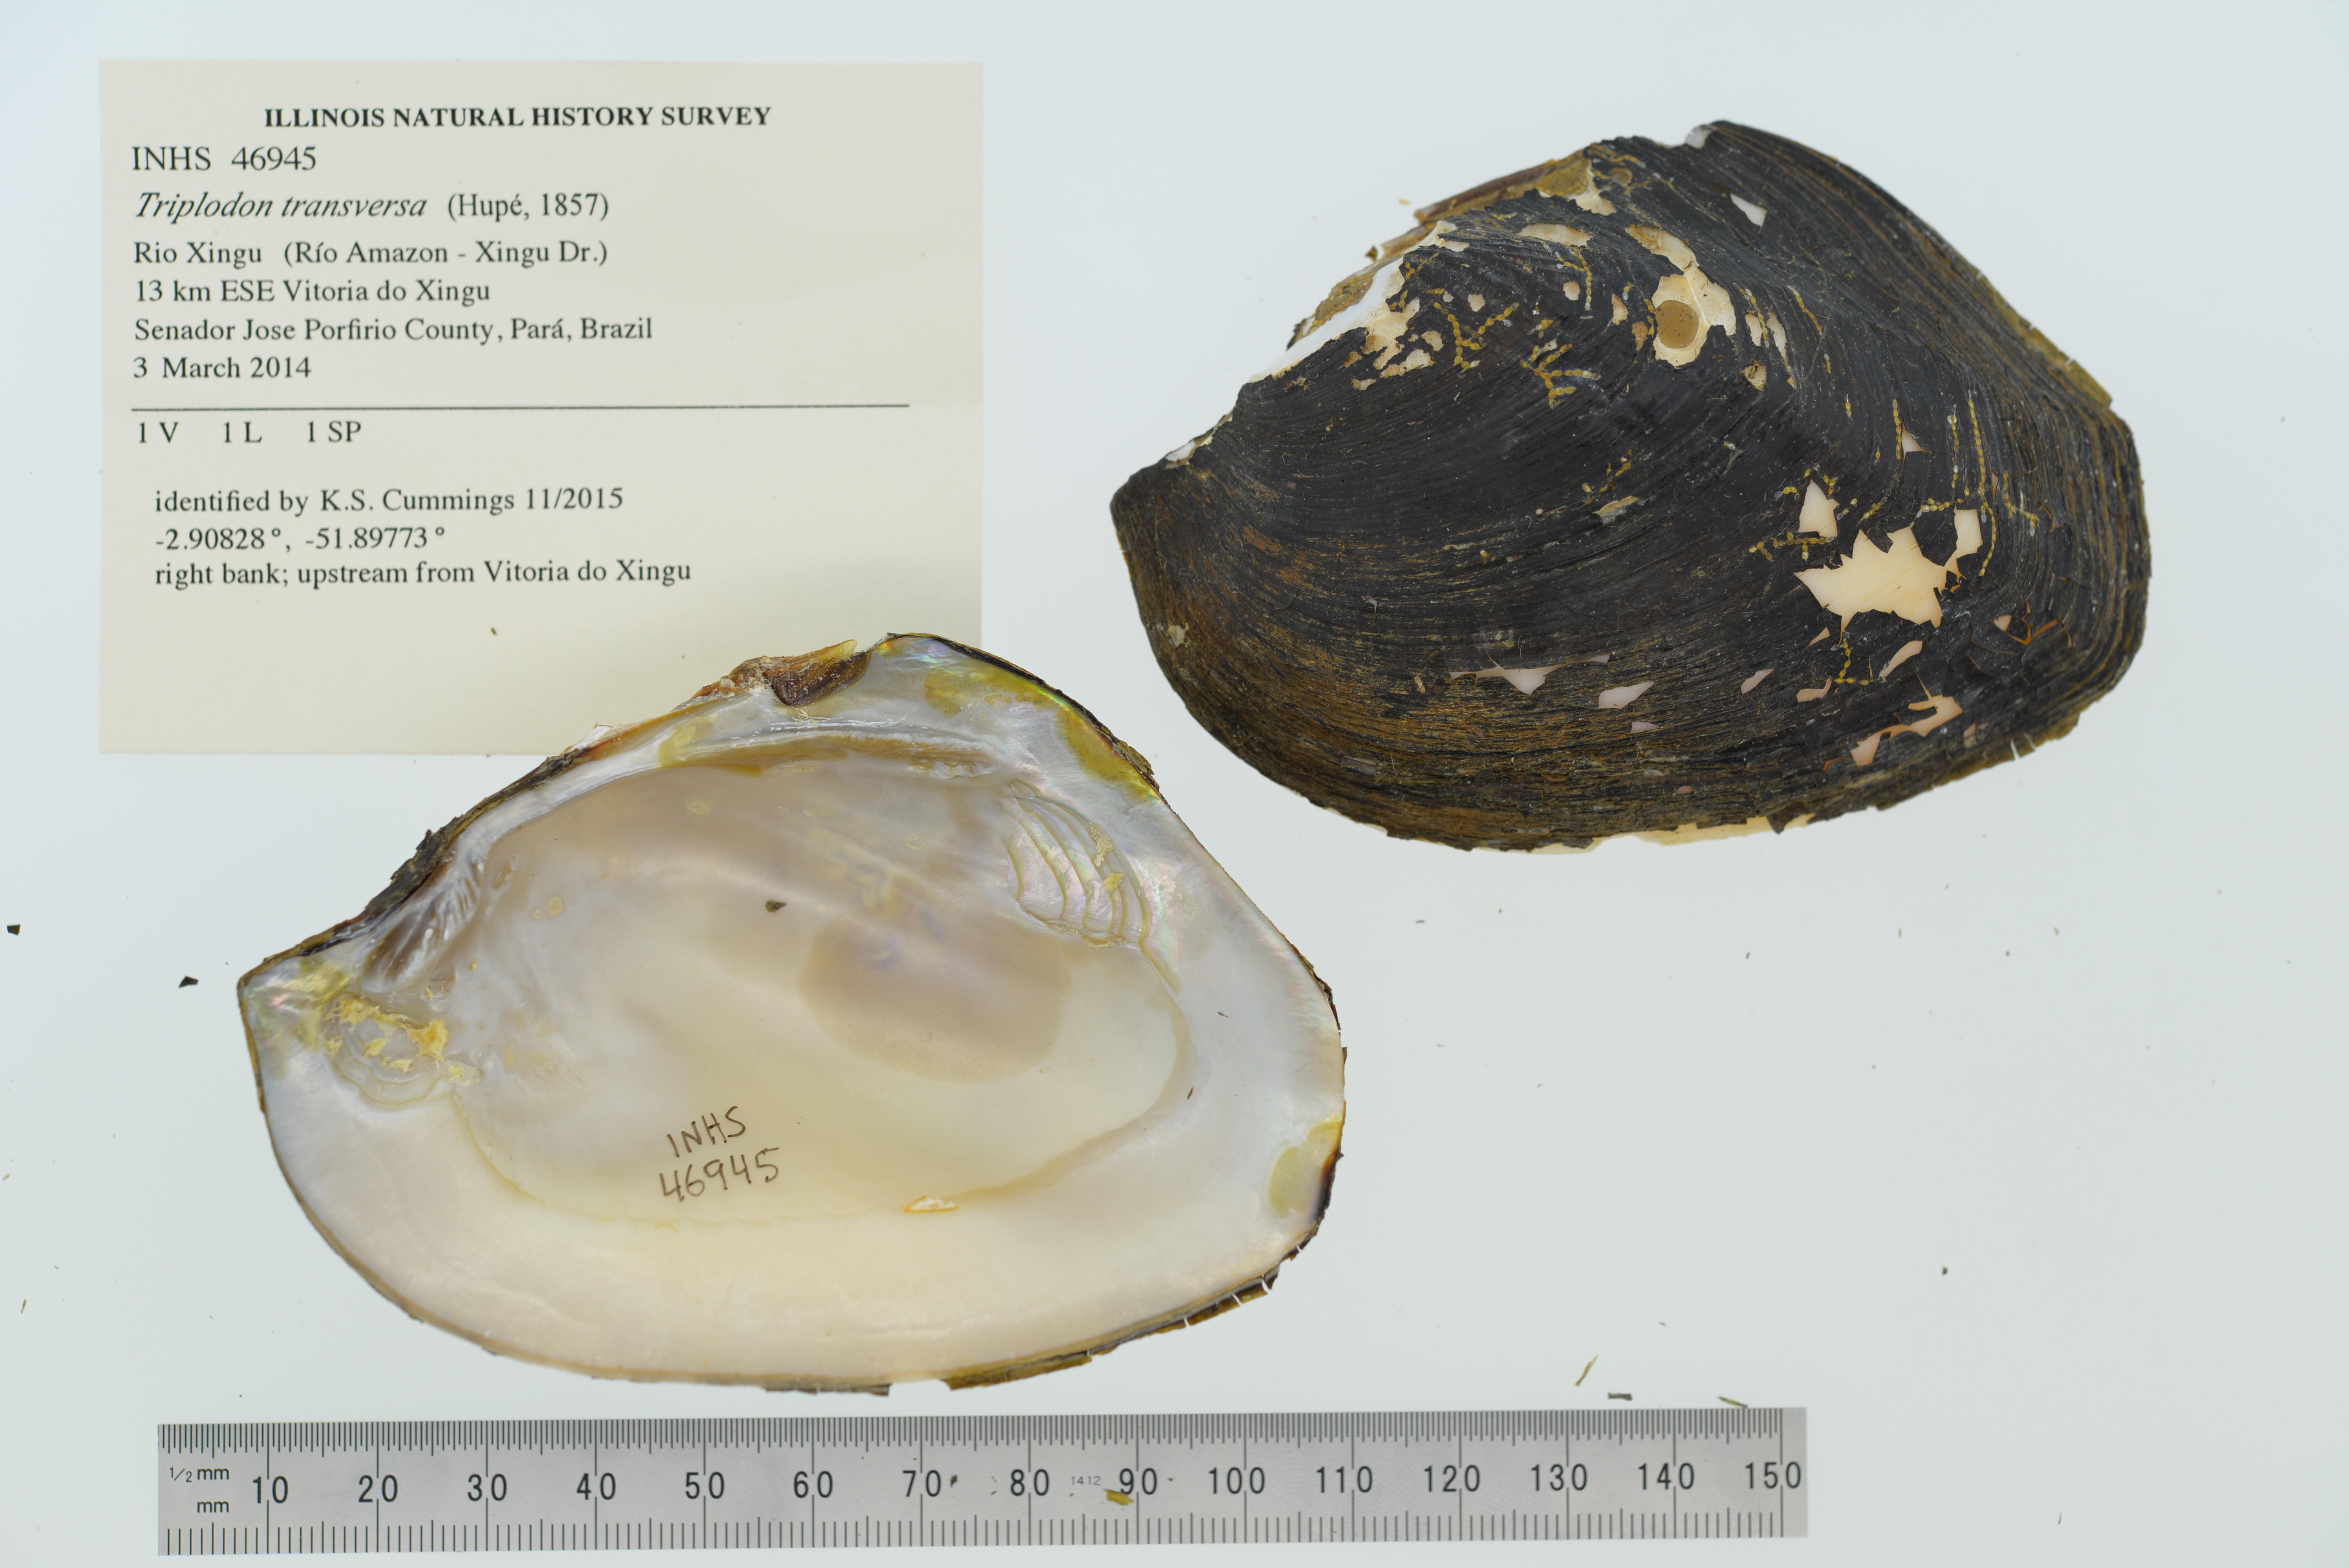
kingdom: Animalia
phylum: Mollusca
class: Bivalvia
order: Unionida
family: Hyriidae
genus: Triplodon
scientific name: Triplodon
